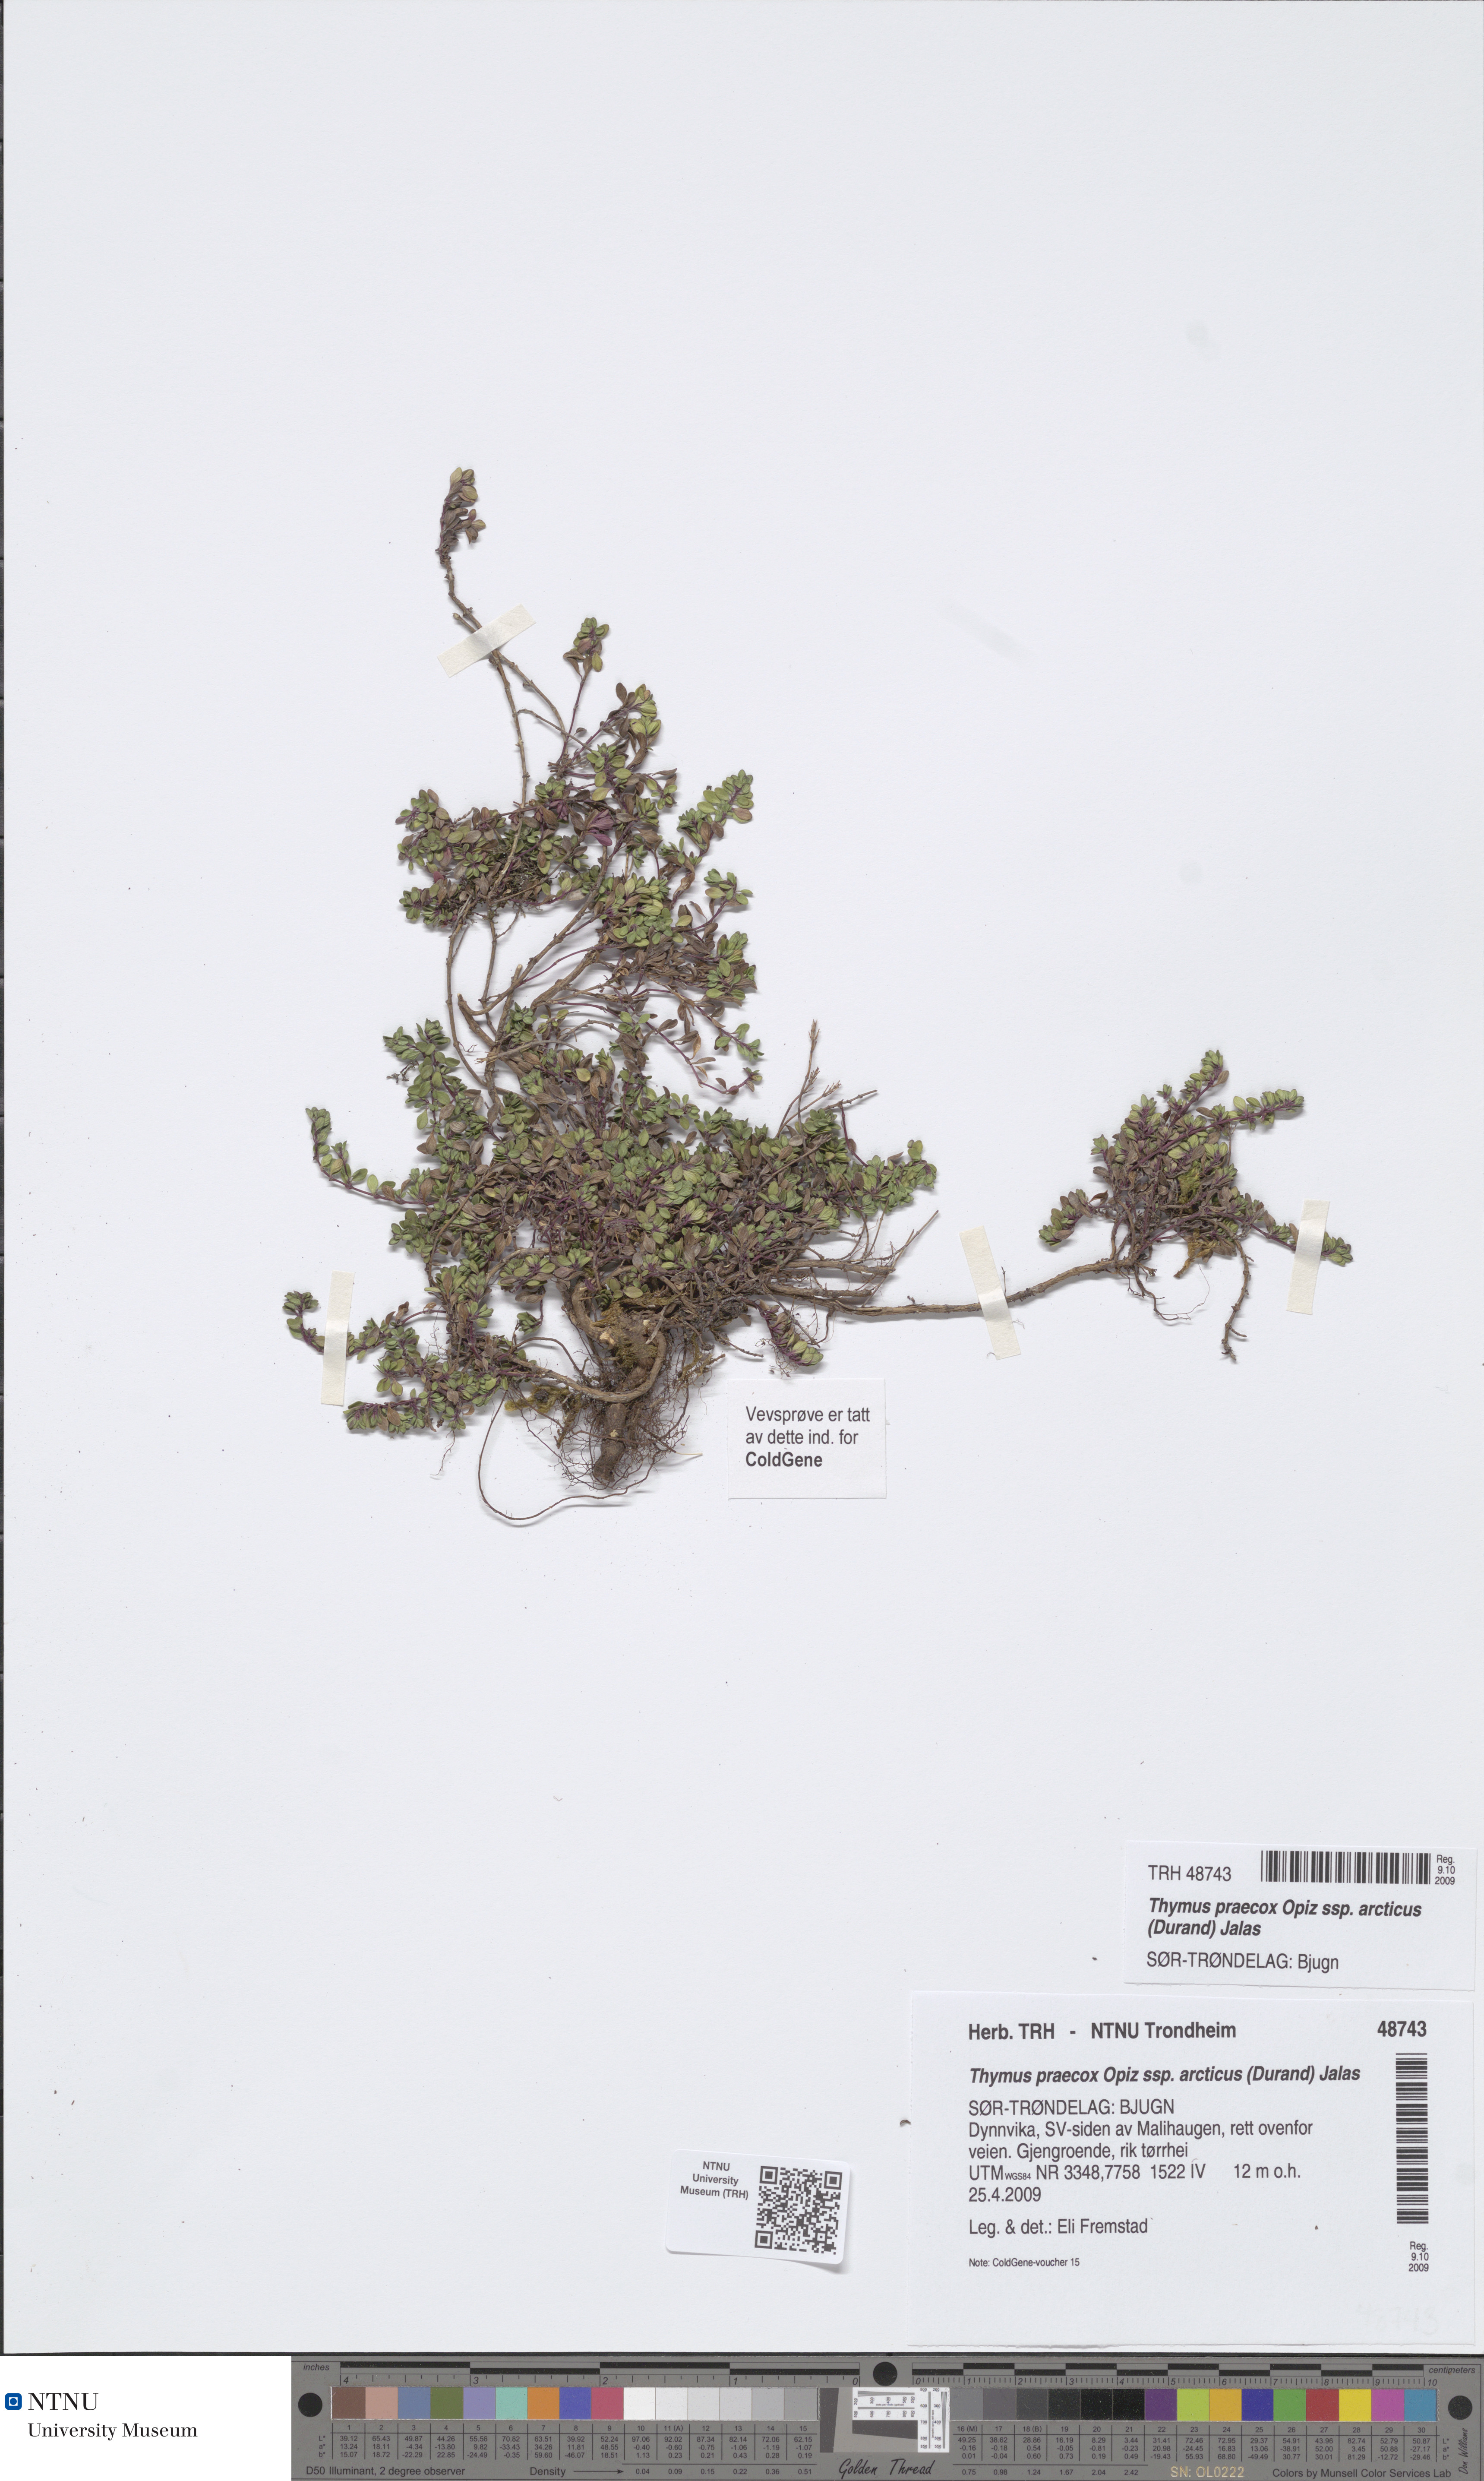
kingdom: Plantae
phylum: Tracheophyta
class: Magnoliopsida
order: Lamiales
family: Lamiaceae
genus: Thymus
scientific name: Thymus praecox
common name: Wild thyme
